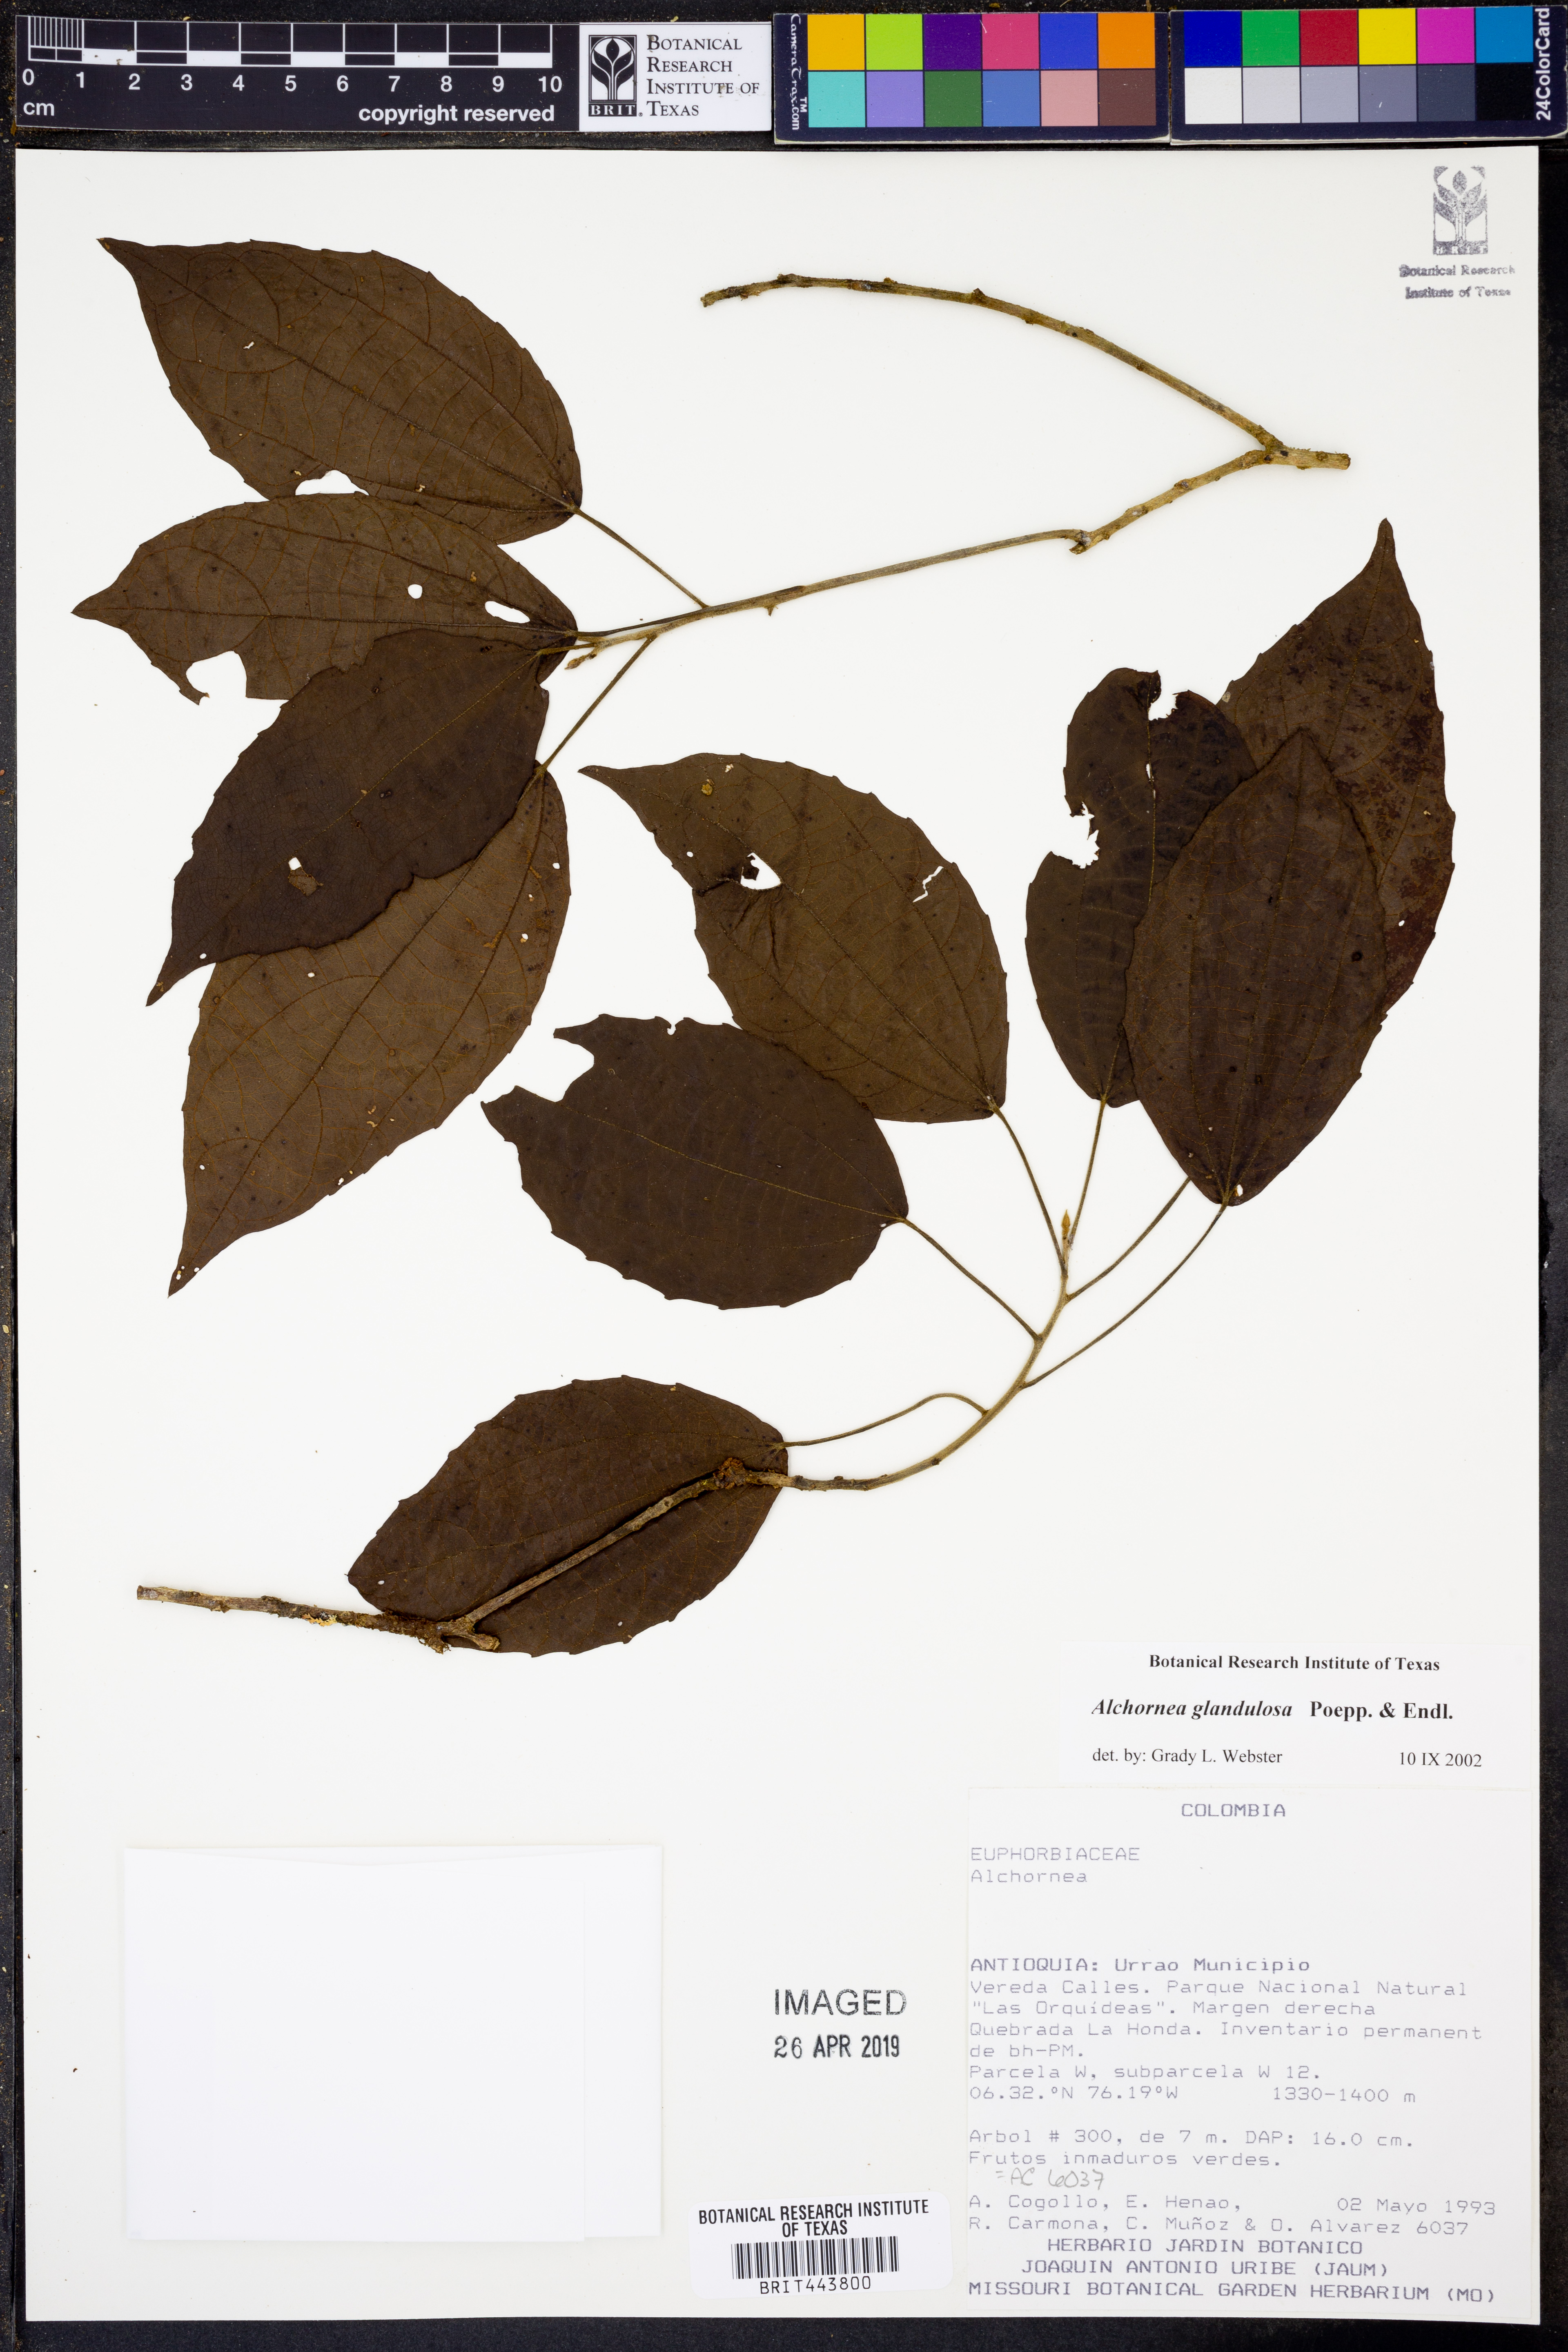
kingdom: Plantae
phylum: Tracheophyta
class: Magnoliopsida
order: Malpighiales
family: Euphorbiaceae
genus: Alchornea
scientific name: Alchornea glandulosa
